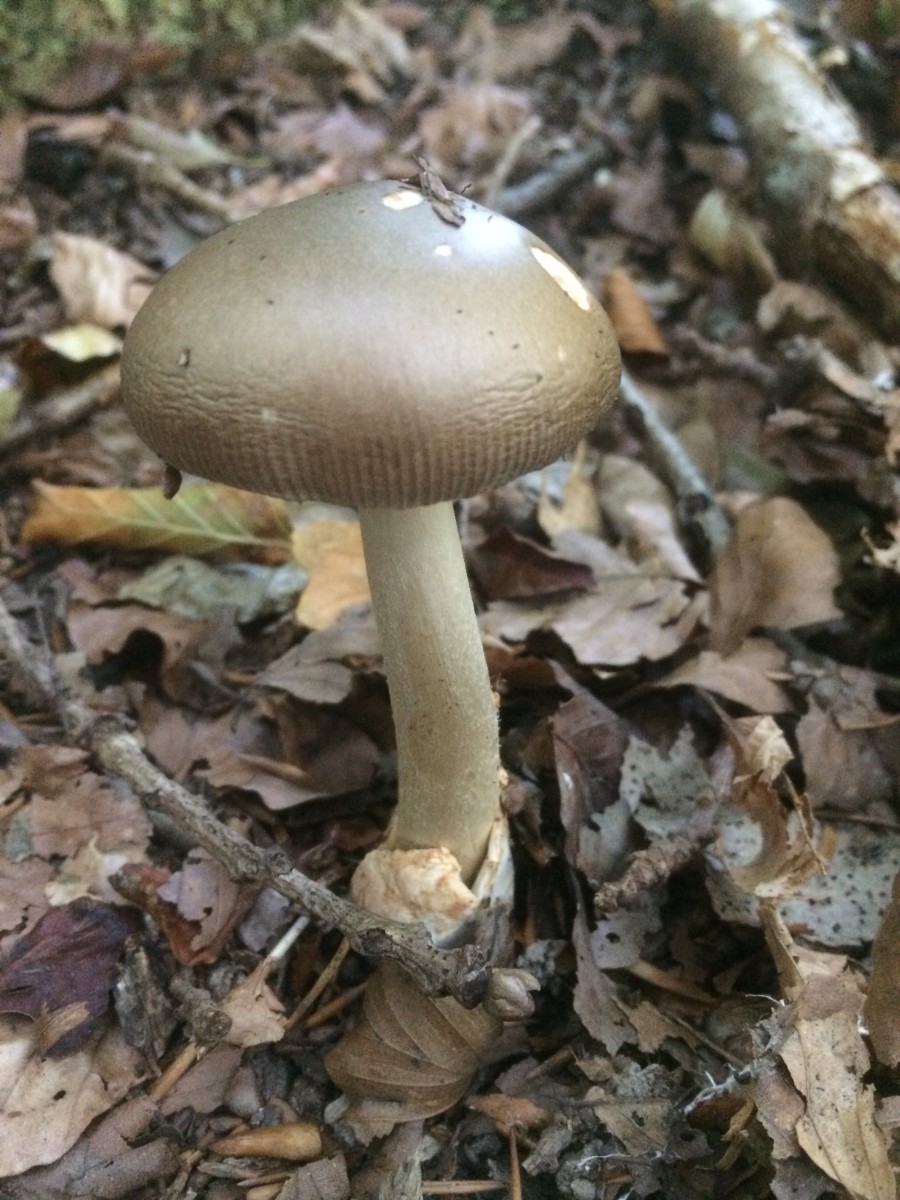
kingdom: Fungi
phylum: Basidiomycota
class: Agaricomycetes
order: Agaricales
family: Amanitaceae
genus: Amanita
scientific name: Amanita
